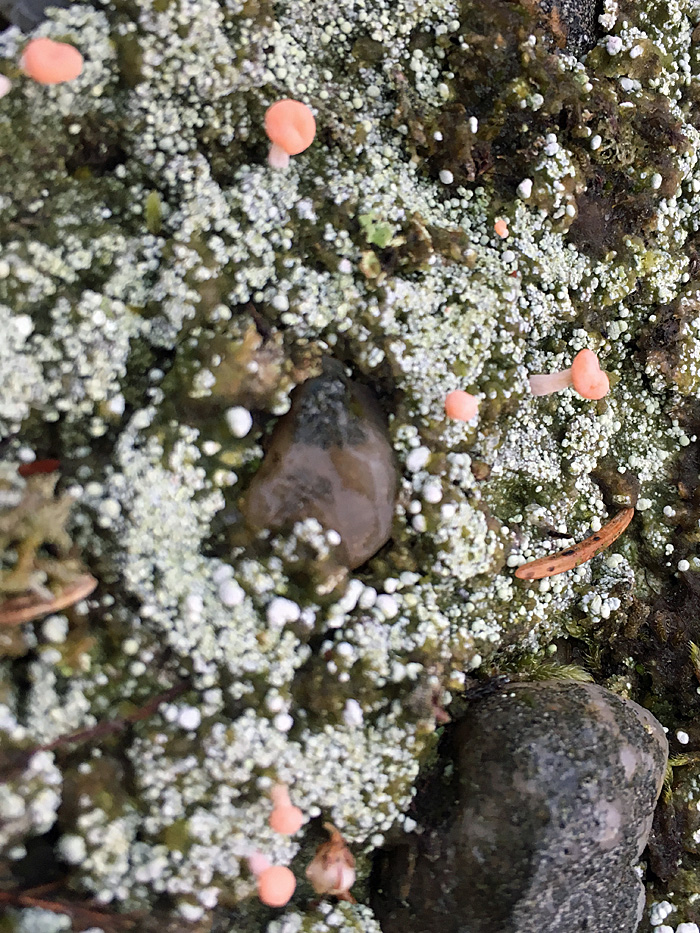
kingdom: Fungi
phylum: Ascomycota
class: Lecanoromycetes
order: Pertusariales
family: Icmadophilaceae
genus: Dibaeis
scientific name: Dibaeis baeomyces
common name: rosenrød stilav
